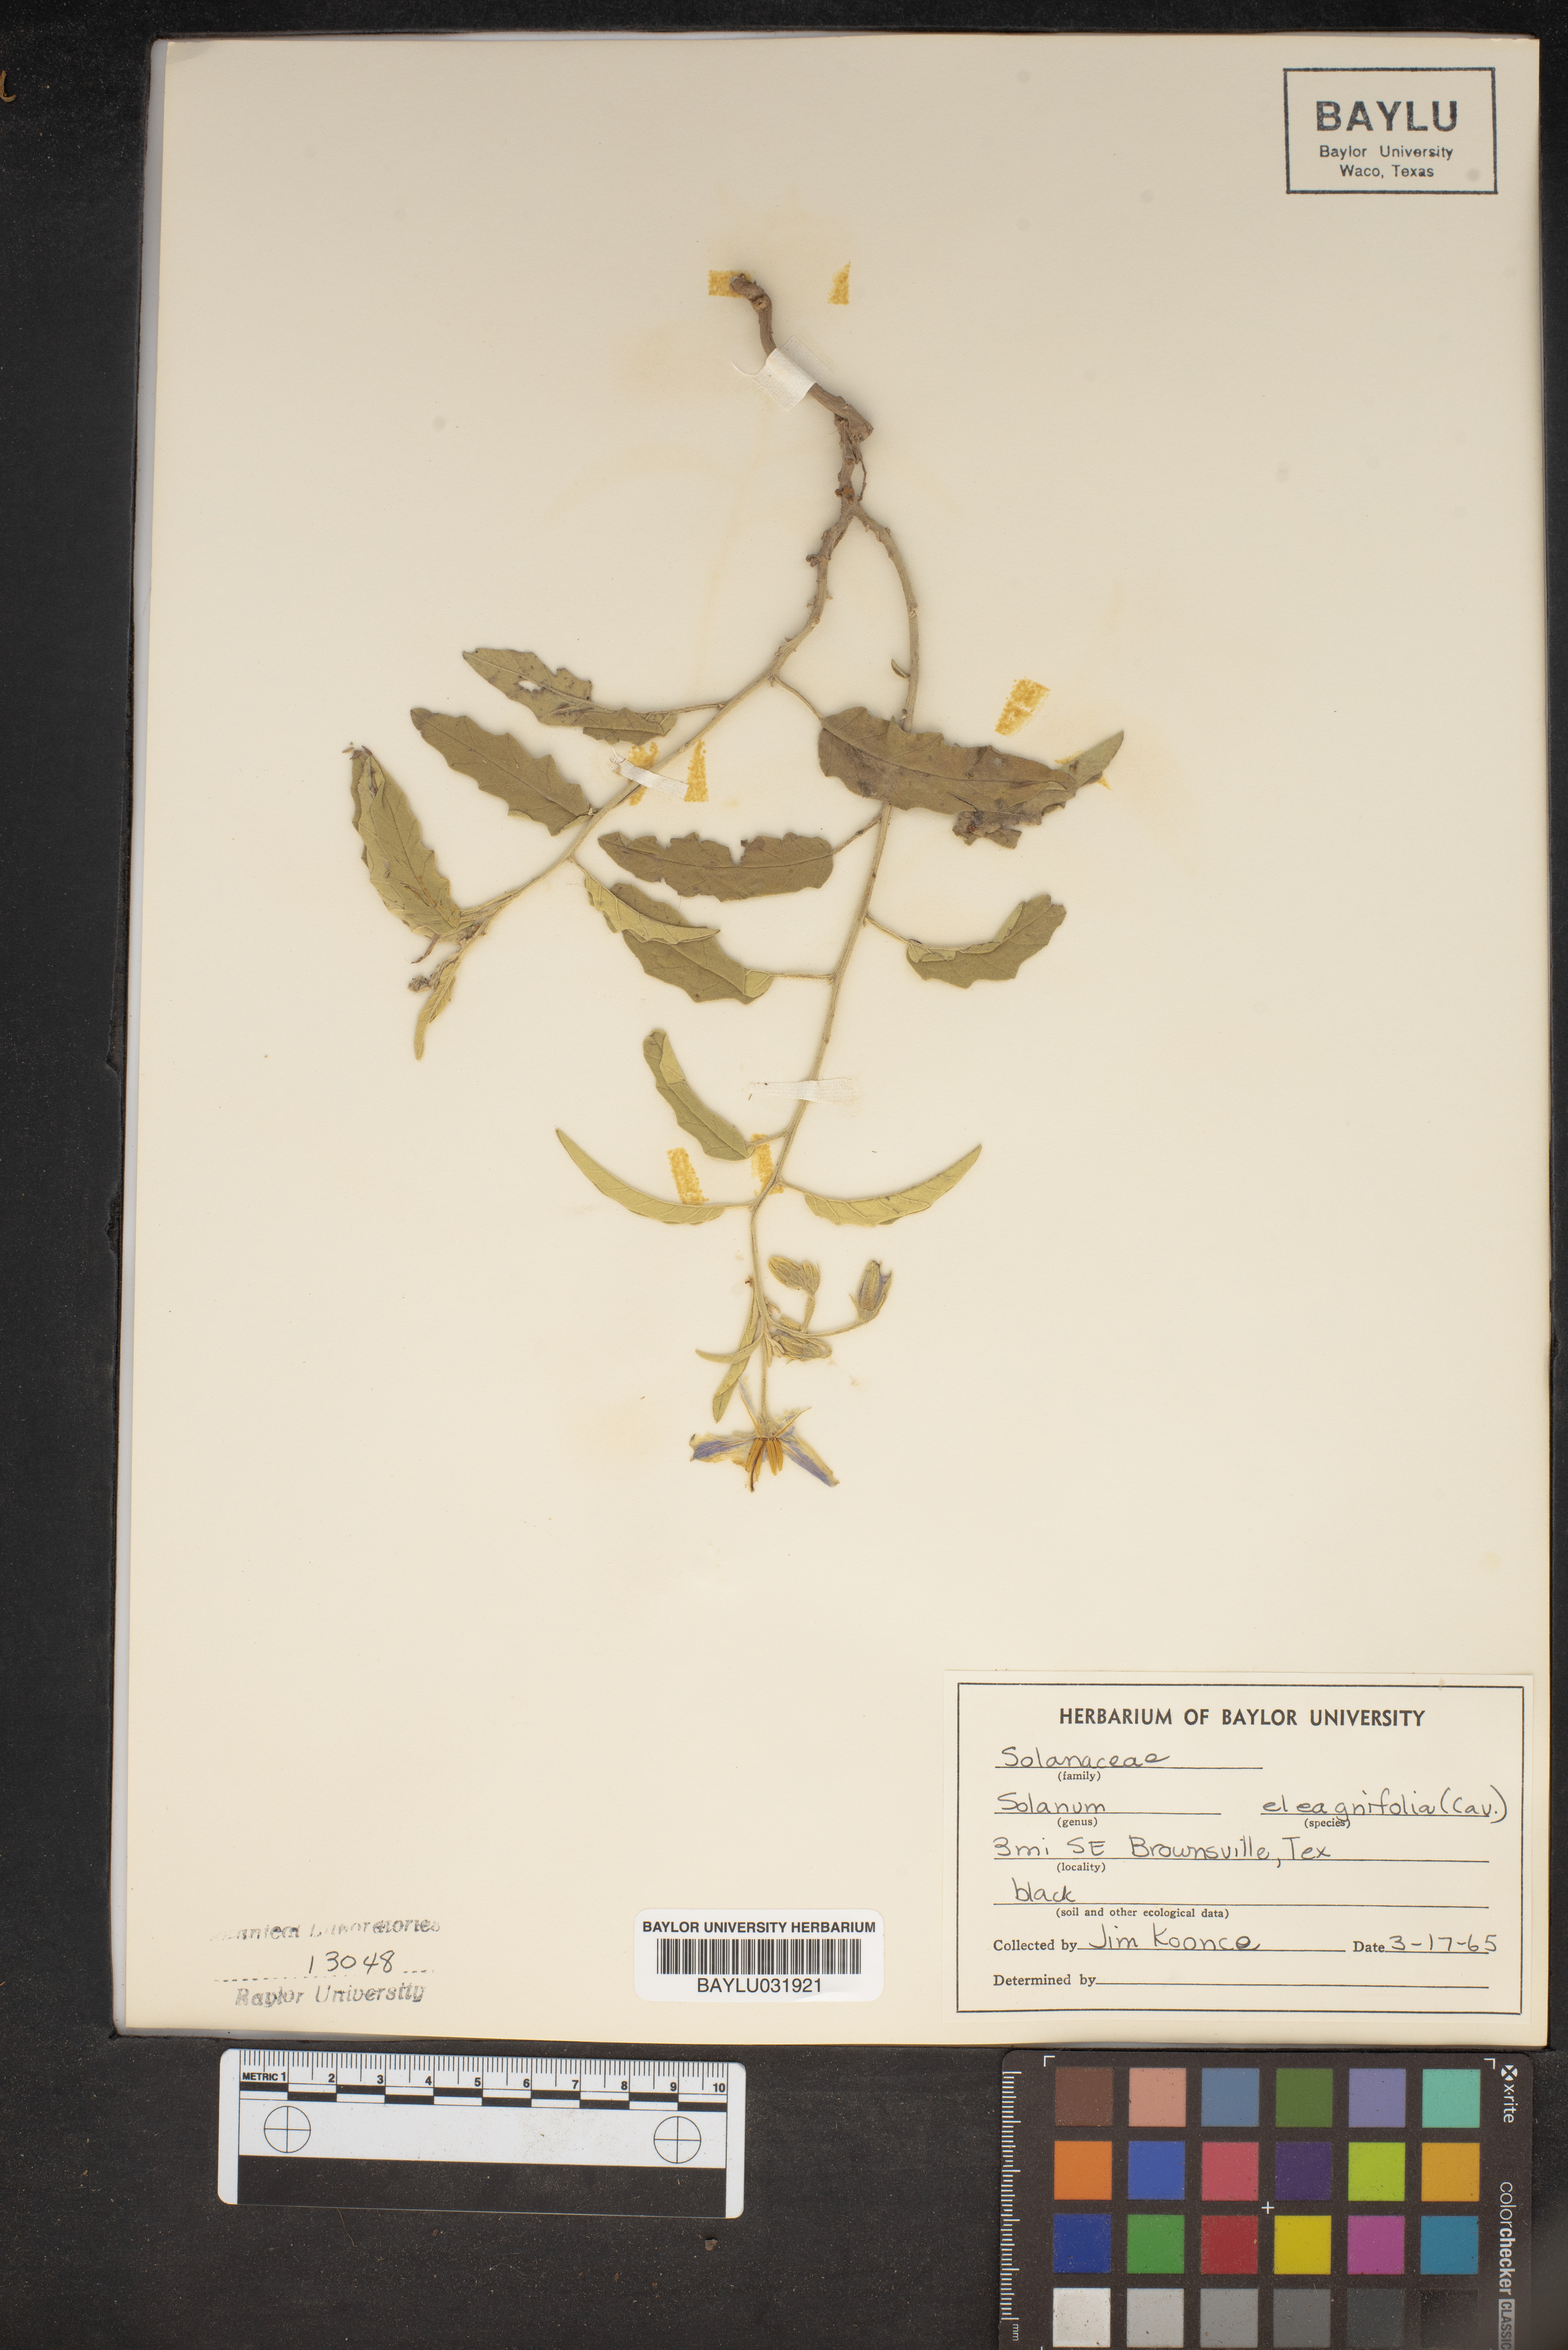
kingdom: Plantae
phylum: Tracheophyta
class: Magnoliopsida
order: Solanales
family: Solanaceae
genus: Solanum
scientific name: Solanum elaeagnifolium
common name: Silverleaf nightshade
